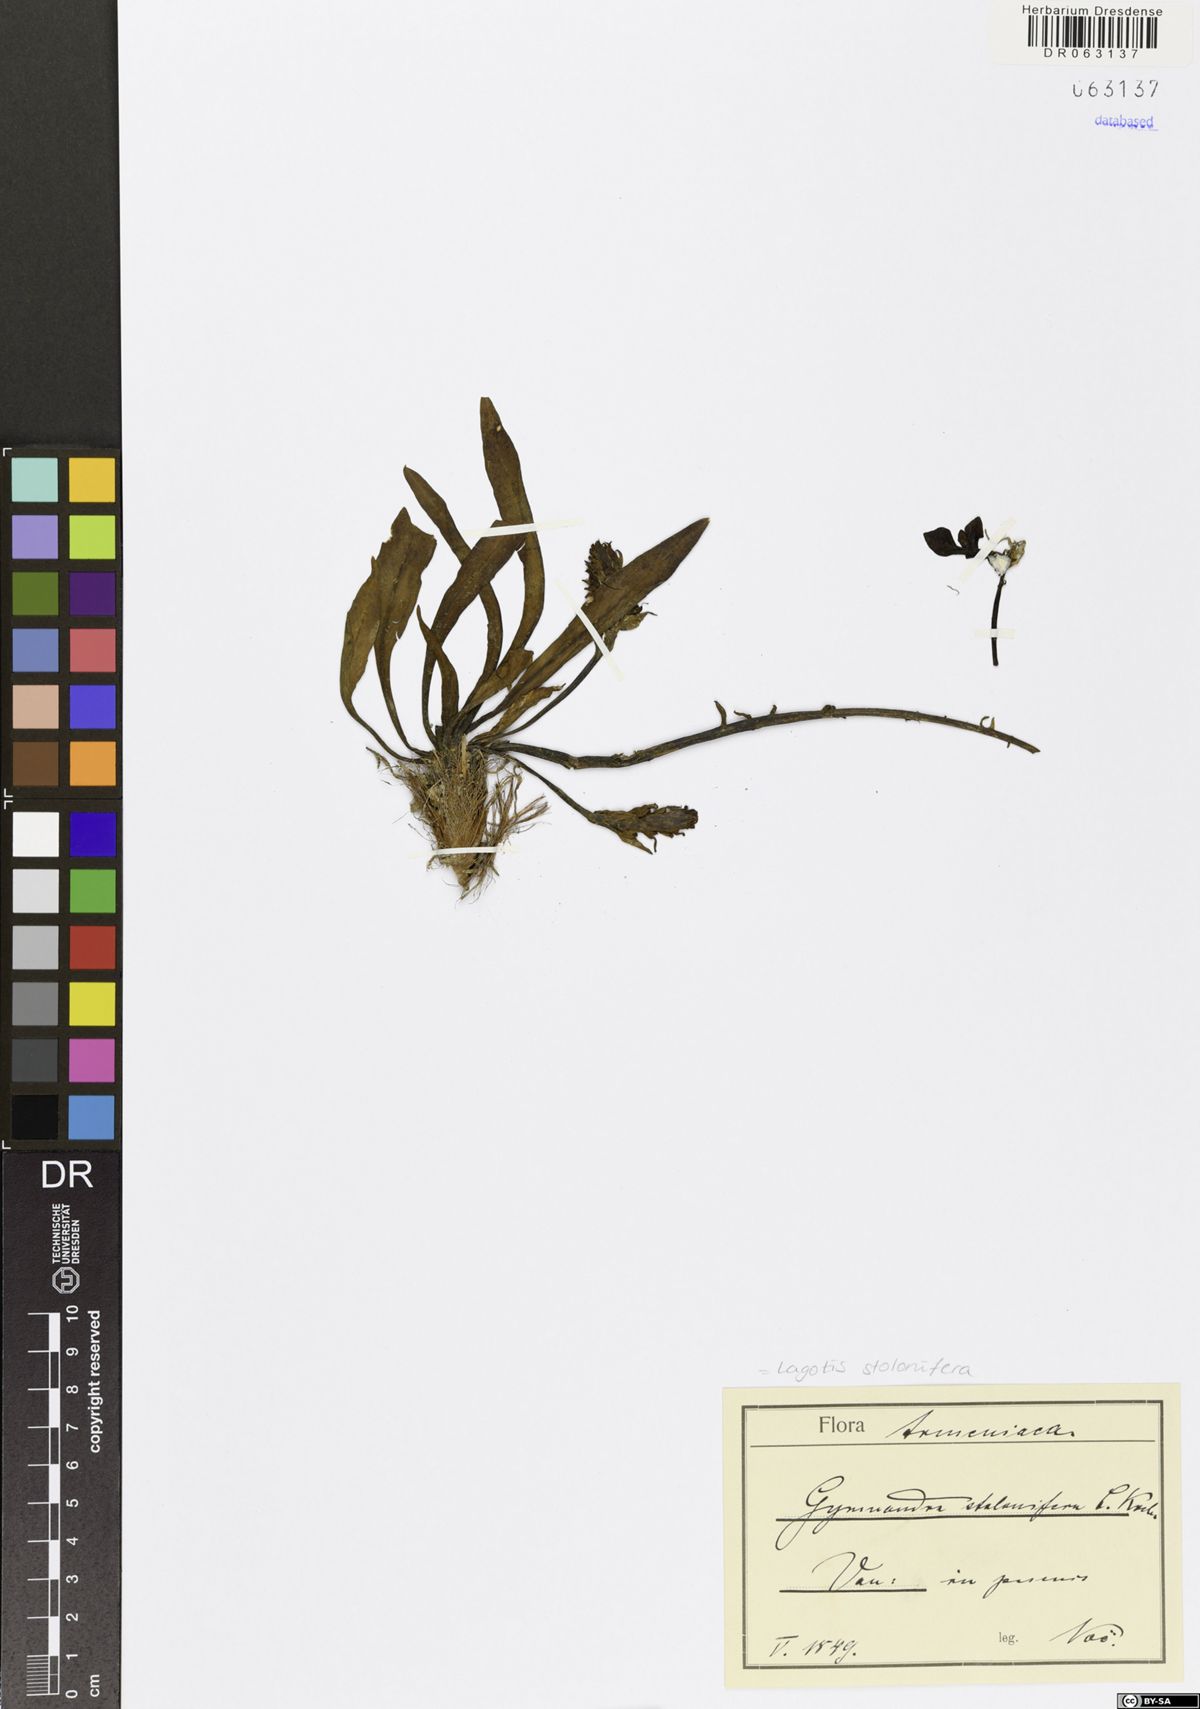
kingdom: Plantae
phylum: Tracheophyta
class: Magnoliopsida
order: Lamiales
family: Plantaginaceae
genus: Lagotis
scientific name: Lagotis stolonifera
